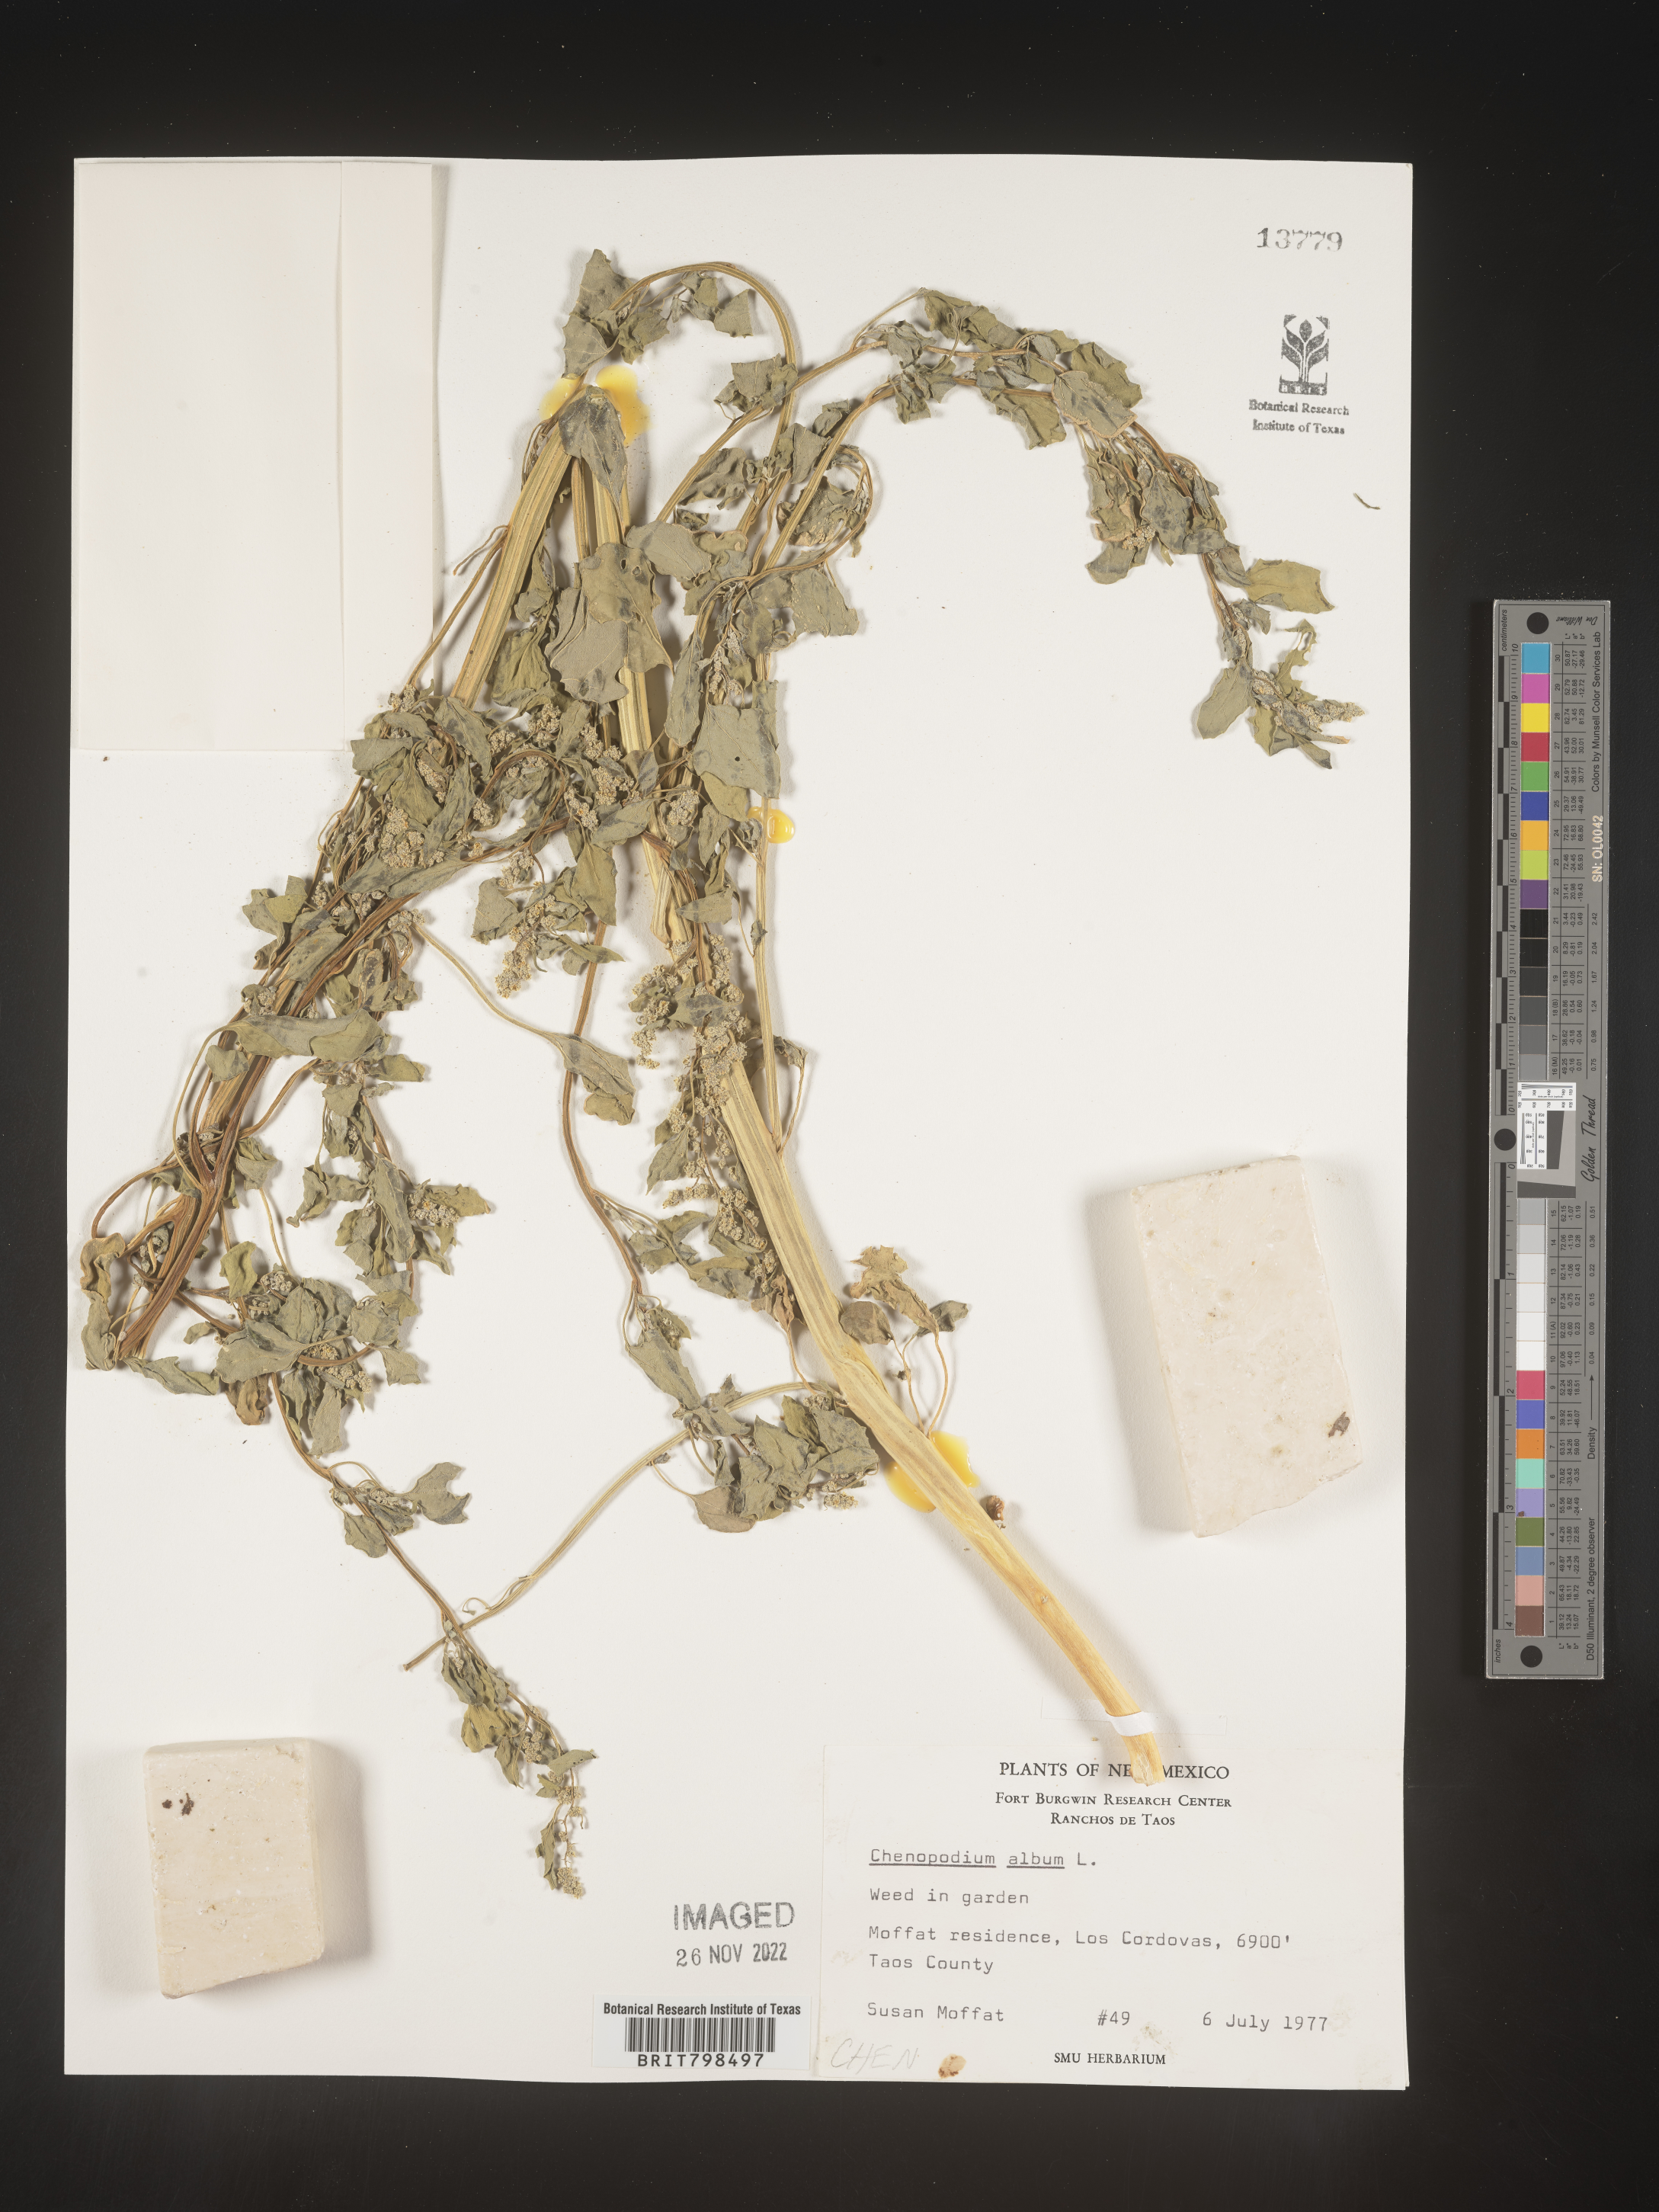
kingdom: Plantae
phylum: Tracheophyta
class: Magnoliopsida
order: Caryophyllales
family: Amaranthaceae
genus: Chenopodium
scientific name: Chenopodium album
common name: Fat-hen
